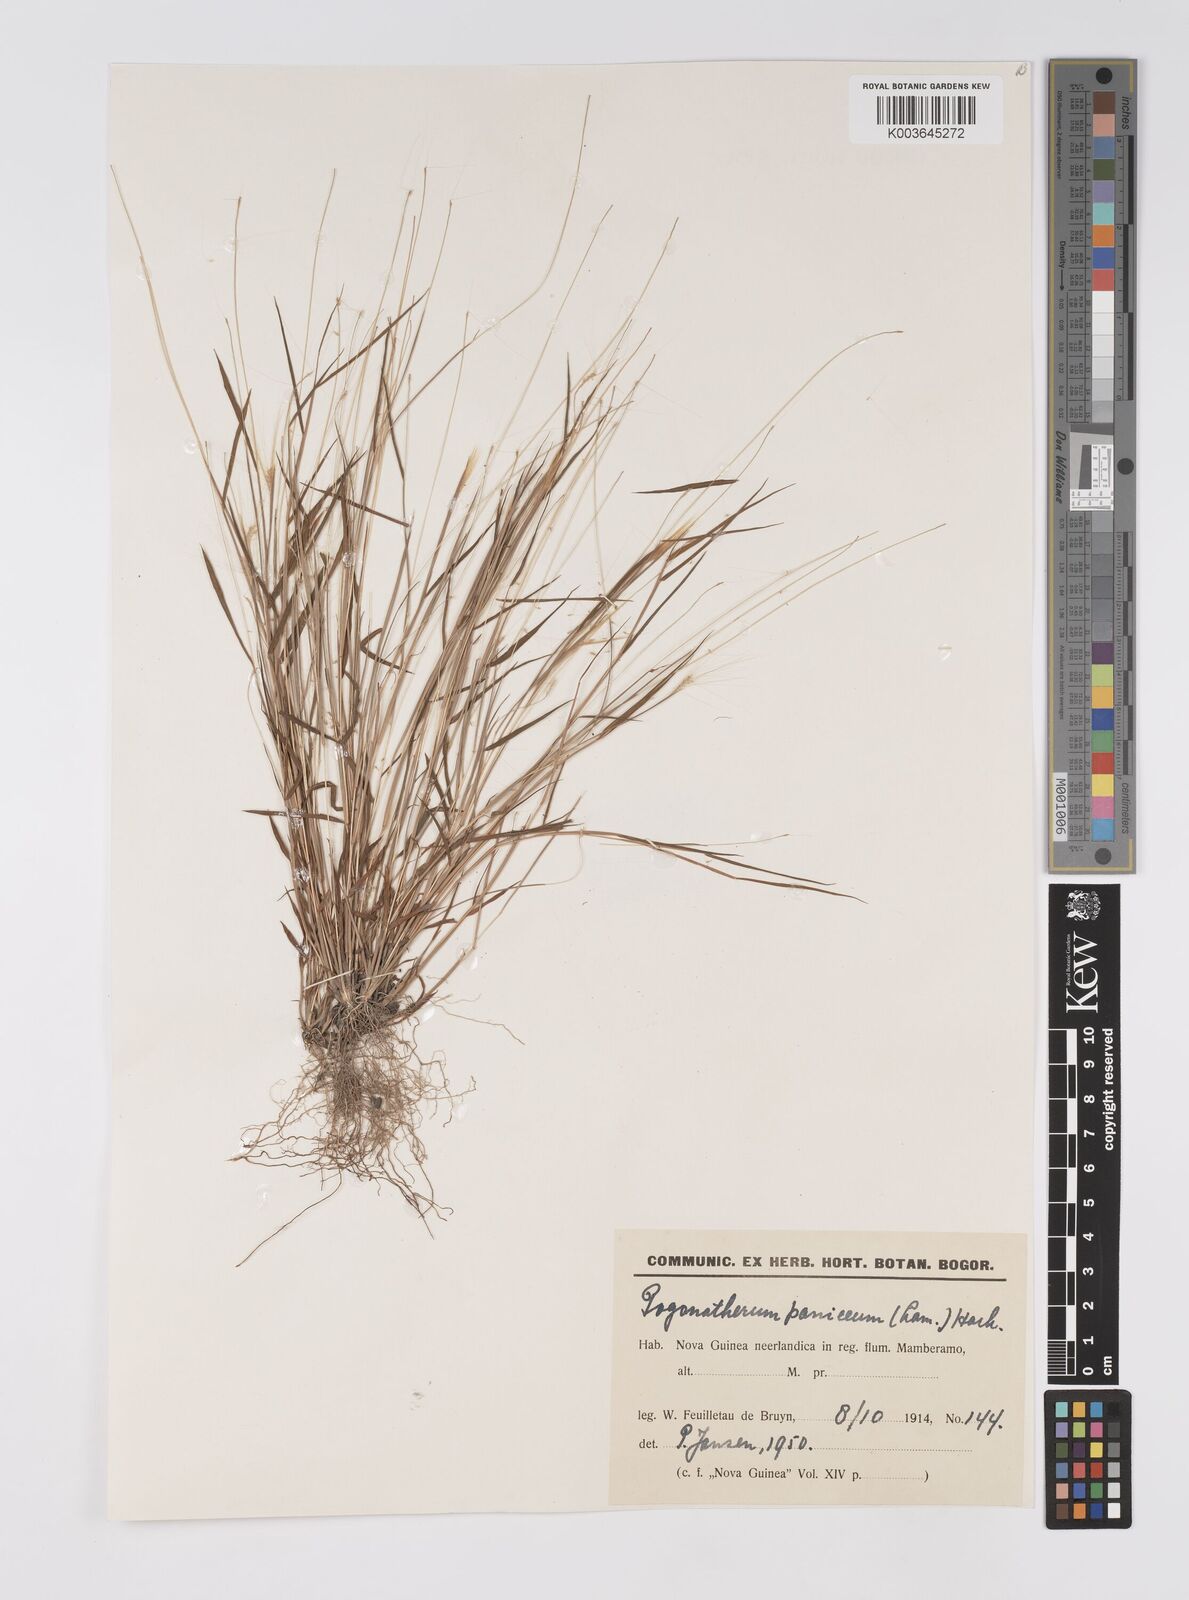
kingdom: Plantae
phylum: Tracheophyta
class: Liliopsida
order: Poales
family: Poaceae
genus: Pogonatherum
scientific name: Pogonatherum crinitum
